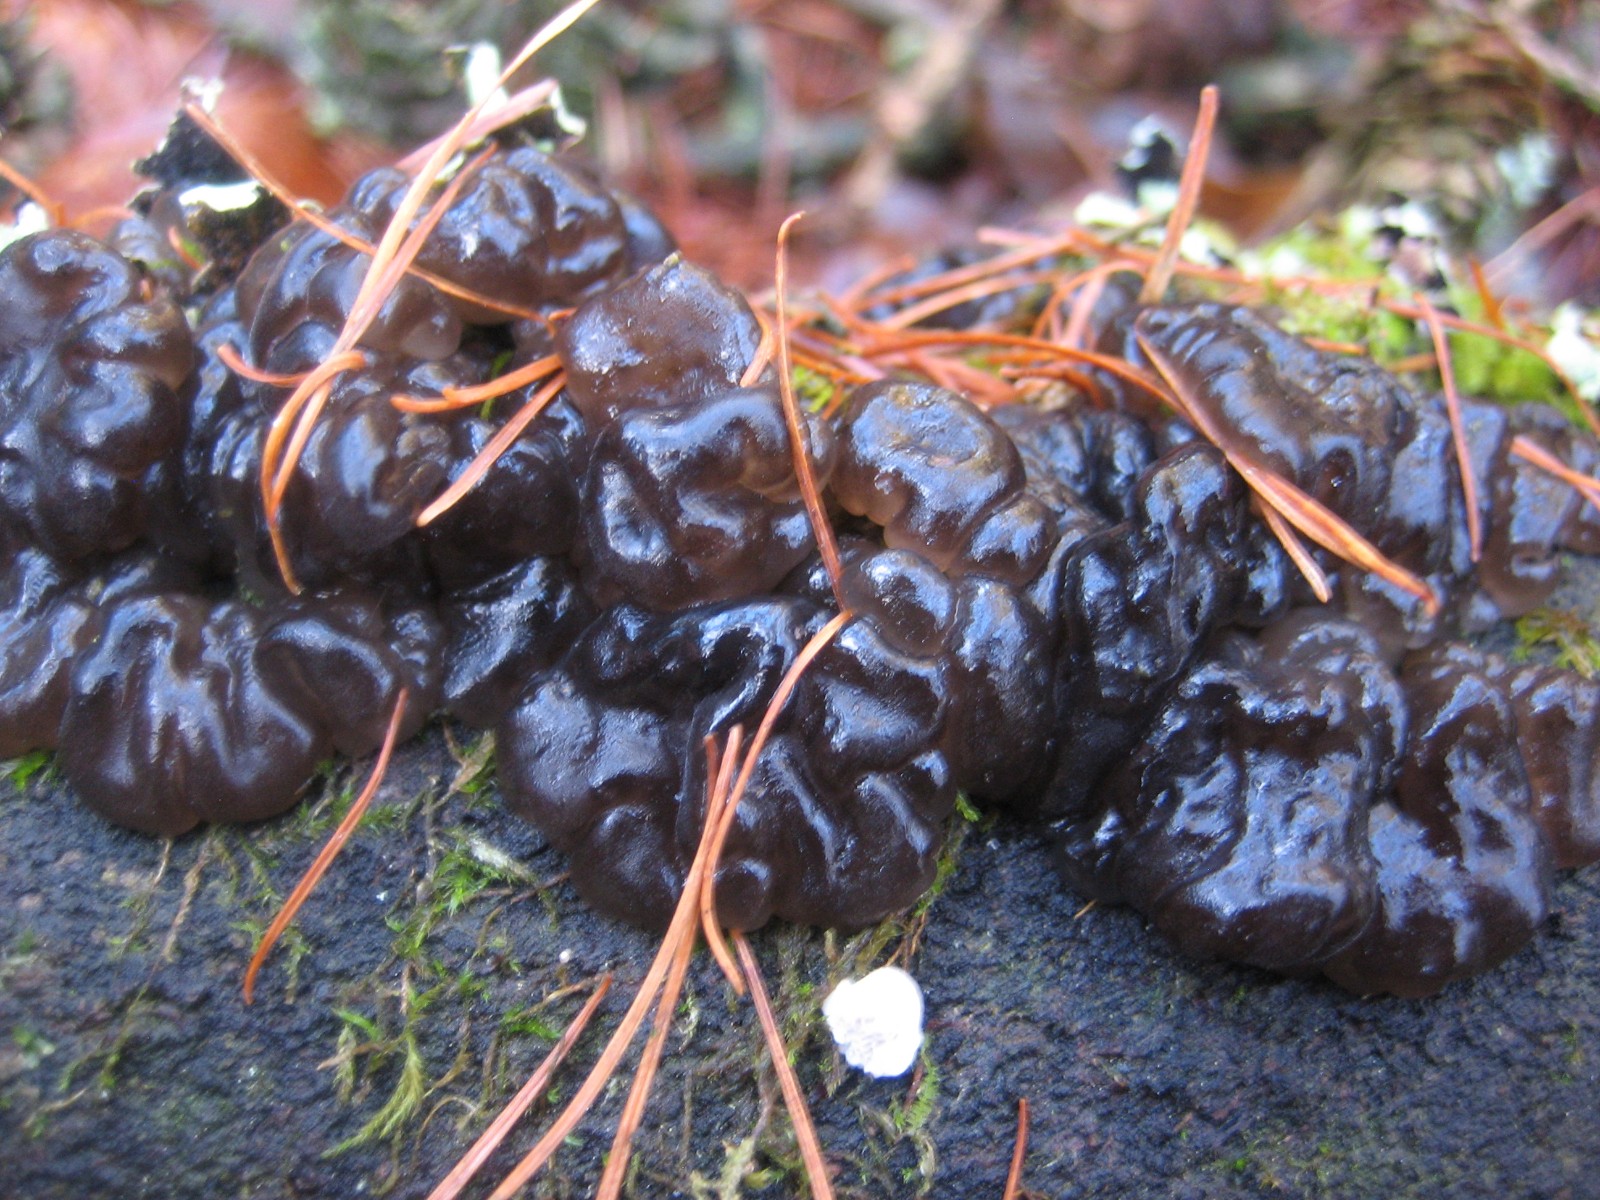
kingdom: Fungi
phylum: Basidiomycota
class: Agaricomycetes
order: Auriculariales
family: Auriculariaceae
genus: Exidia
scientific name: Exidia nigricans
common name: almindelig bævretop
